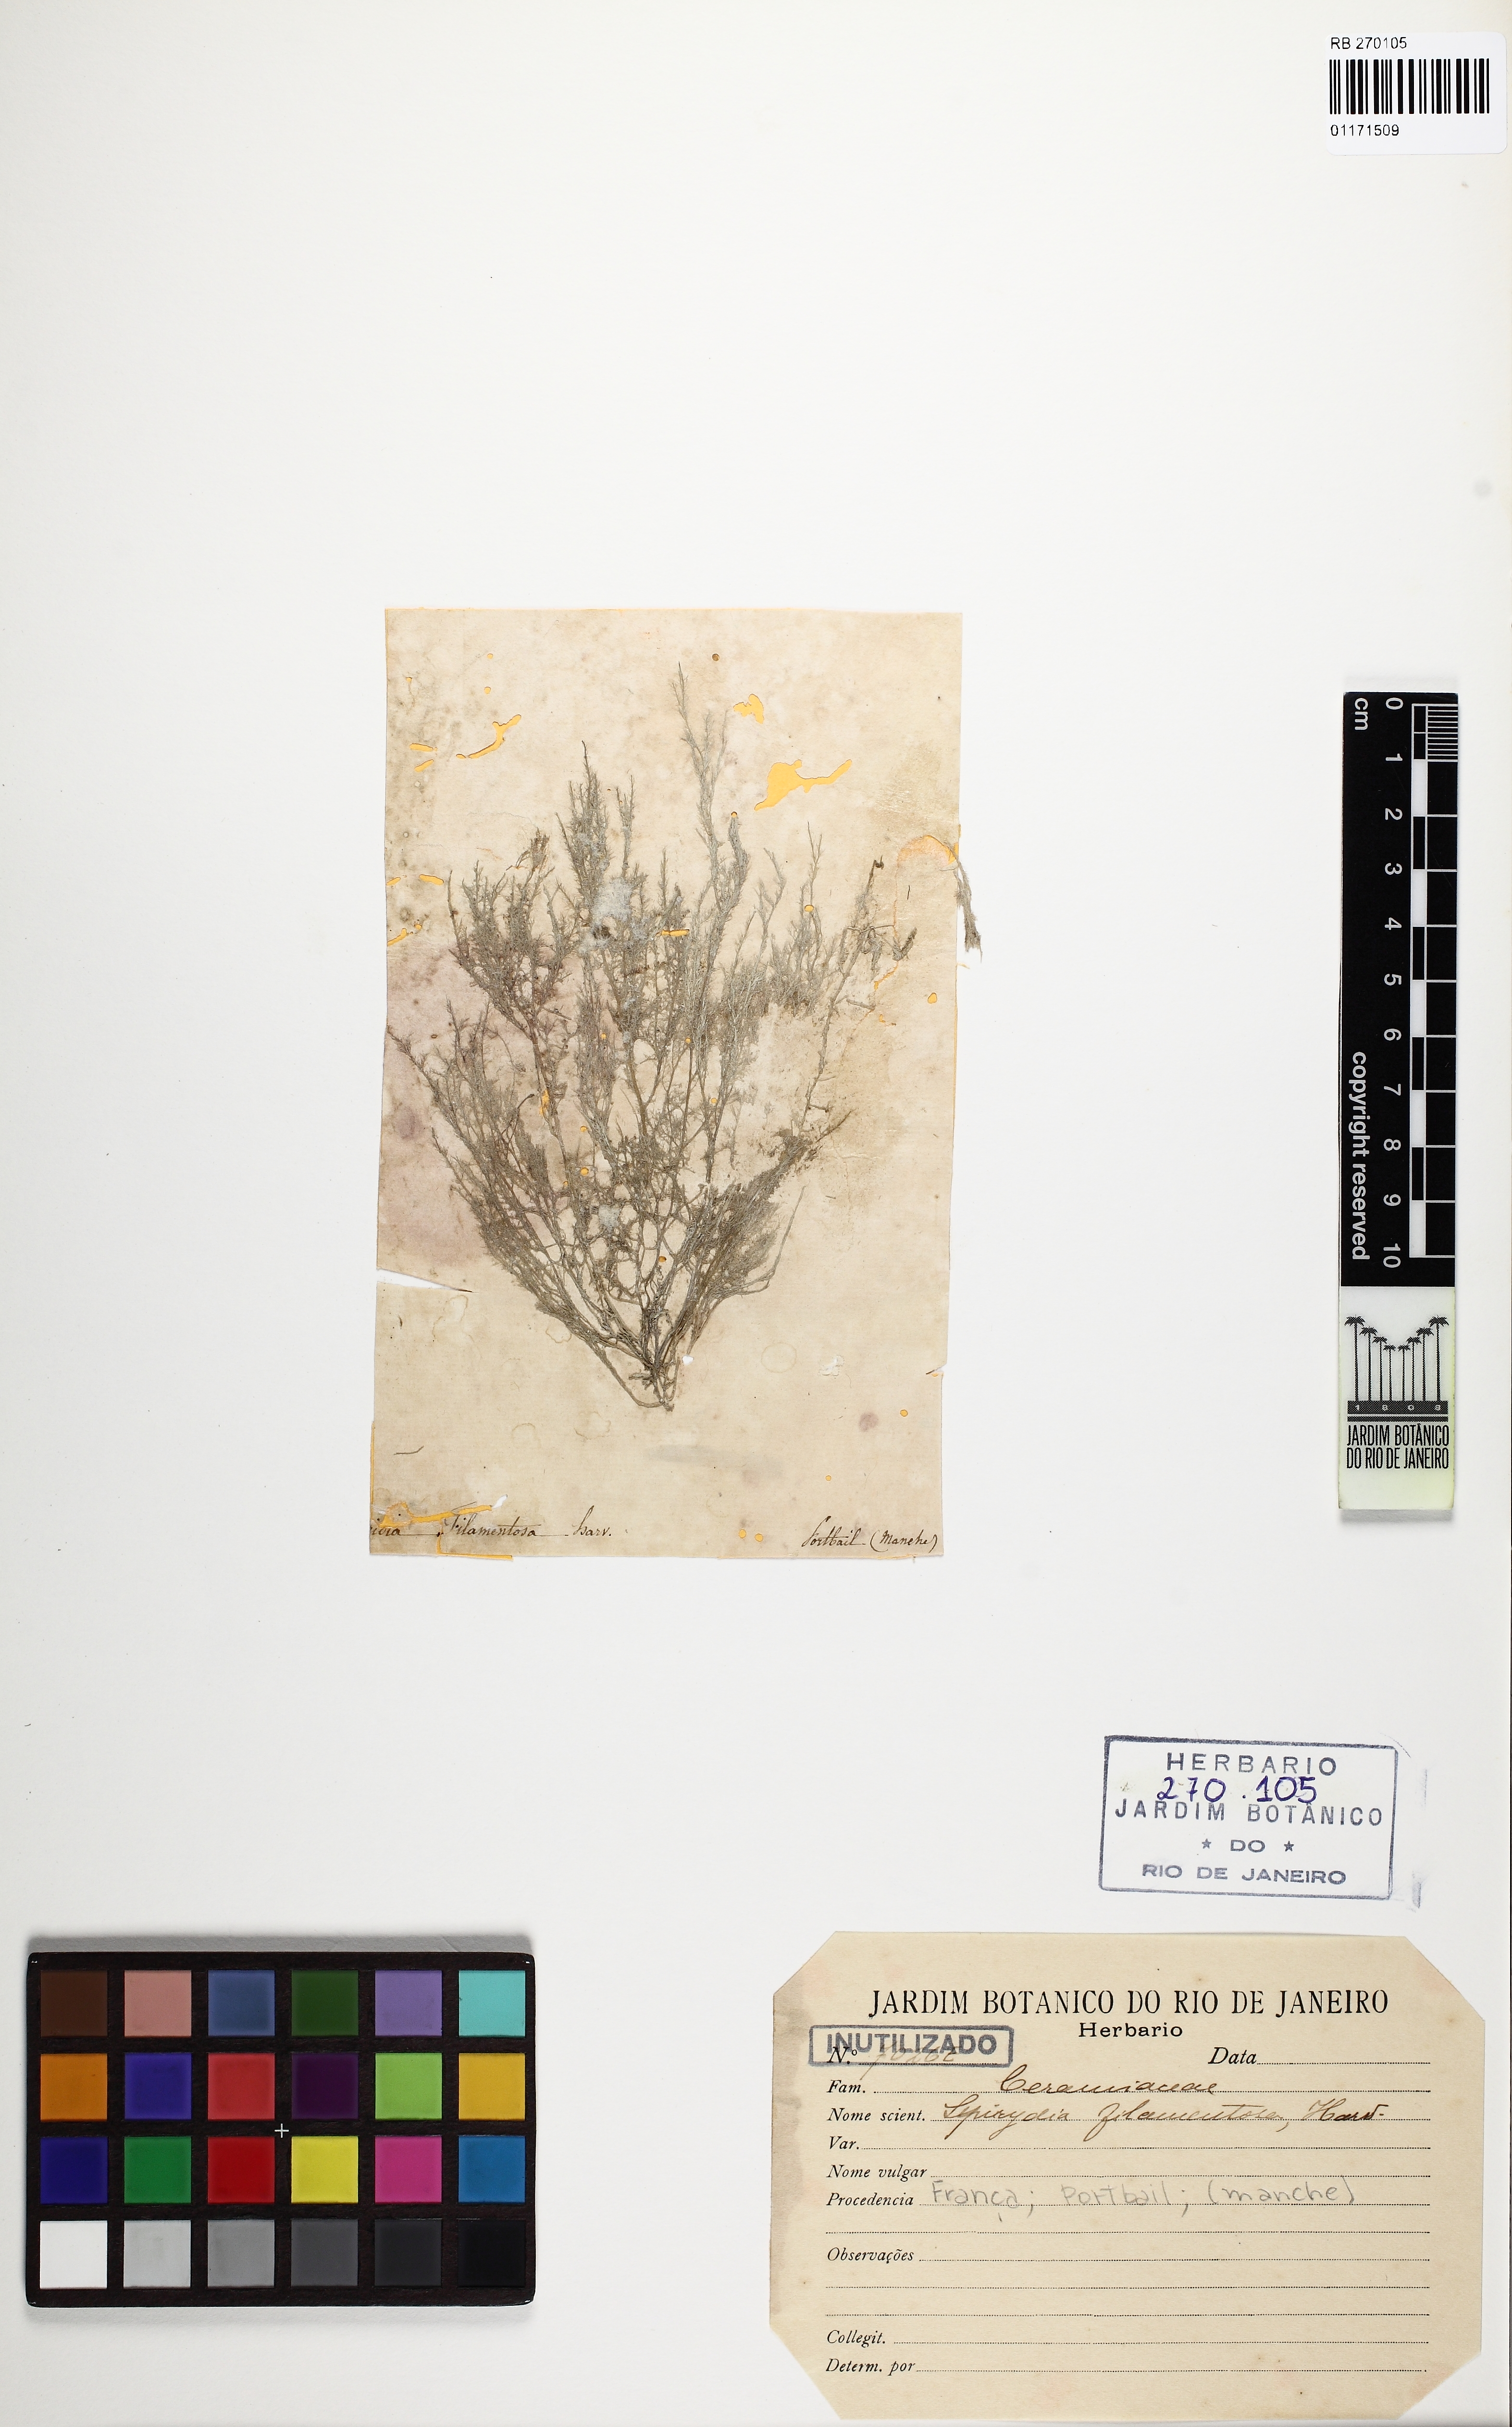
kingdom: Plantae
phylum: Rhodophyta
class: Florideophyceae
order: Ceramiales
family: Spyridiaceae
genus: Spyridia
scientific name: Spyridia filamentosa
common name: Red algae
